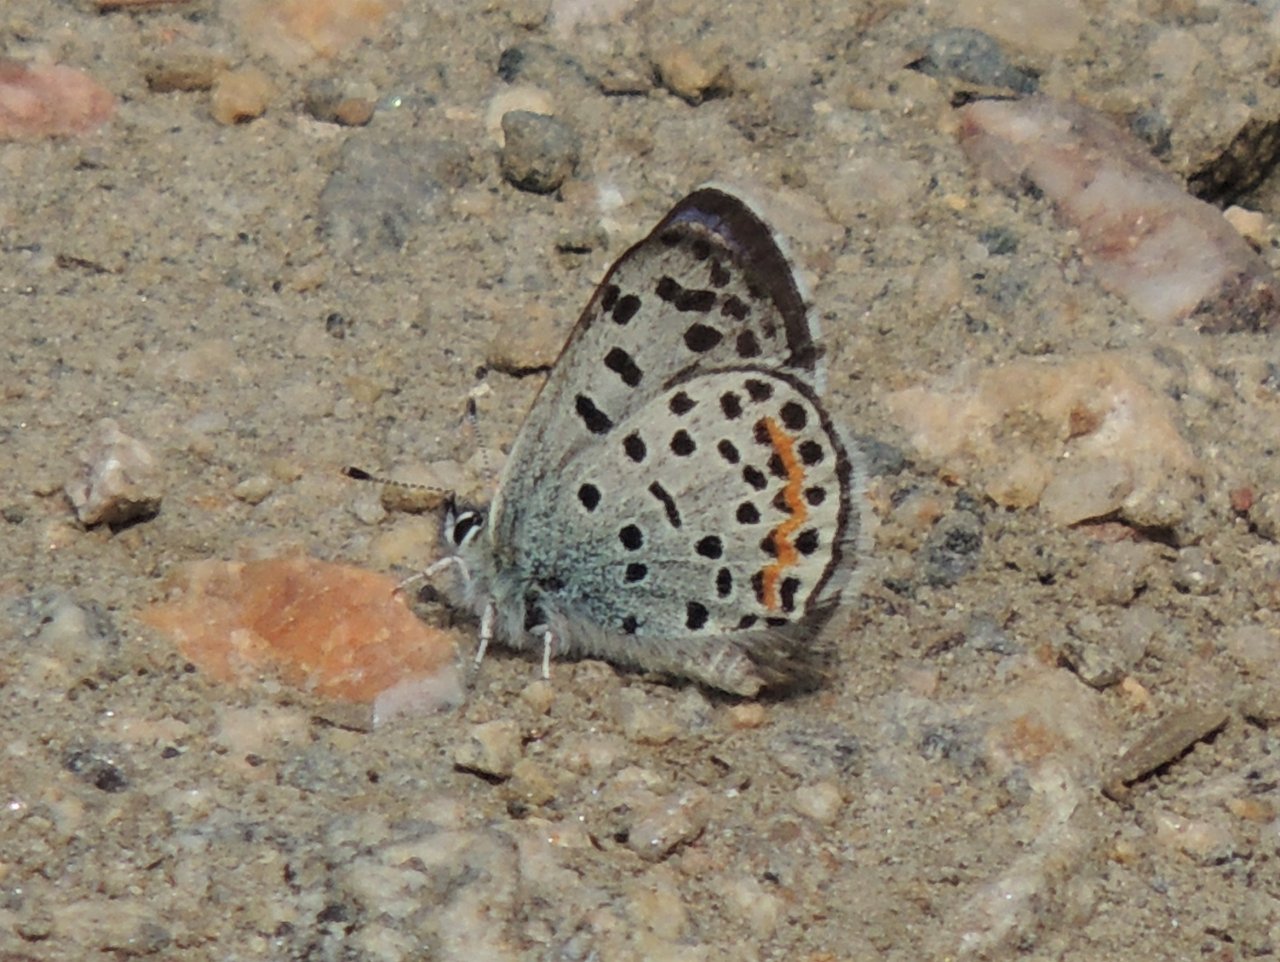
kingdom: Animalia
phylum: Arthropoda
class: Insecta
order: Lepidoptera
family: Lycaenidae
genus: Euphilotes
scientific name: Euphilotes enoptes
